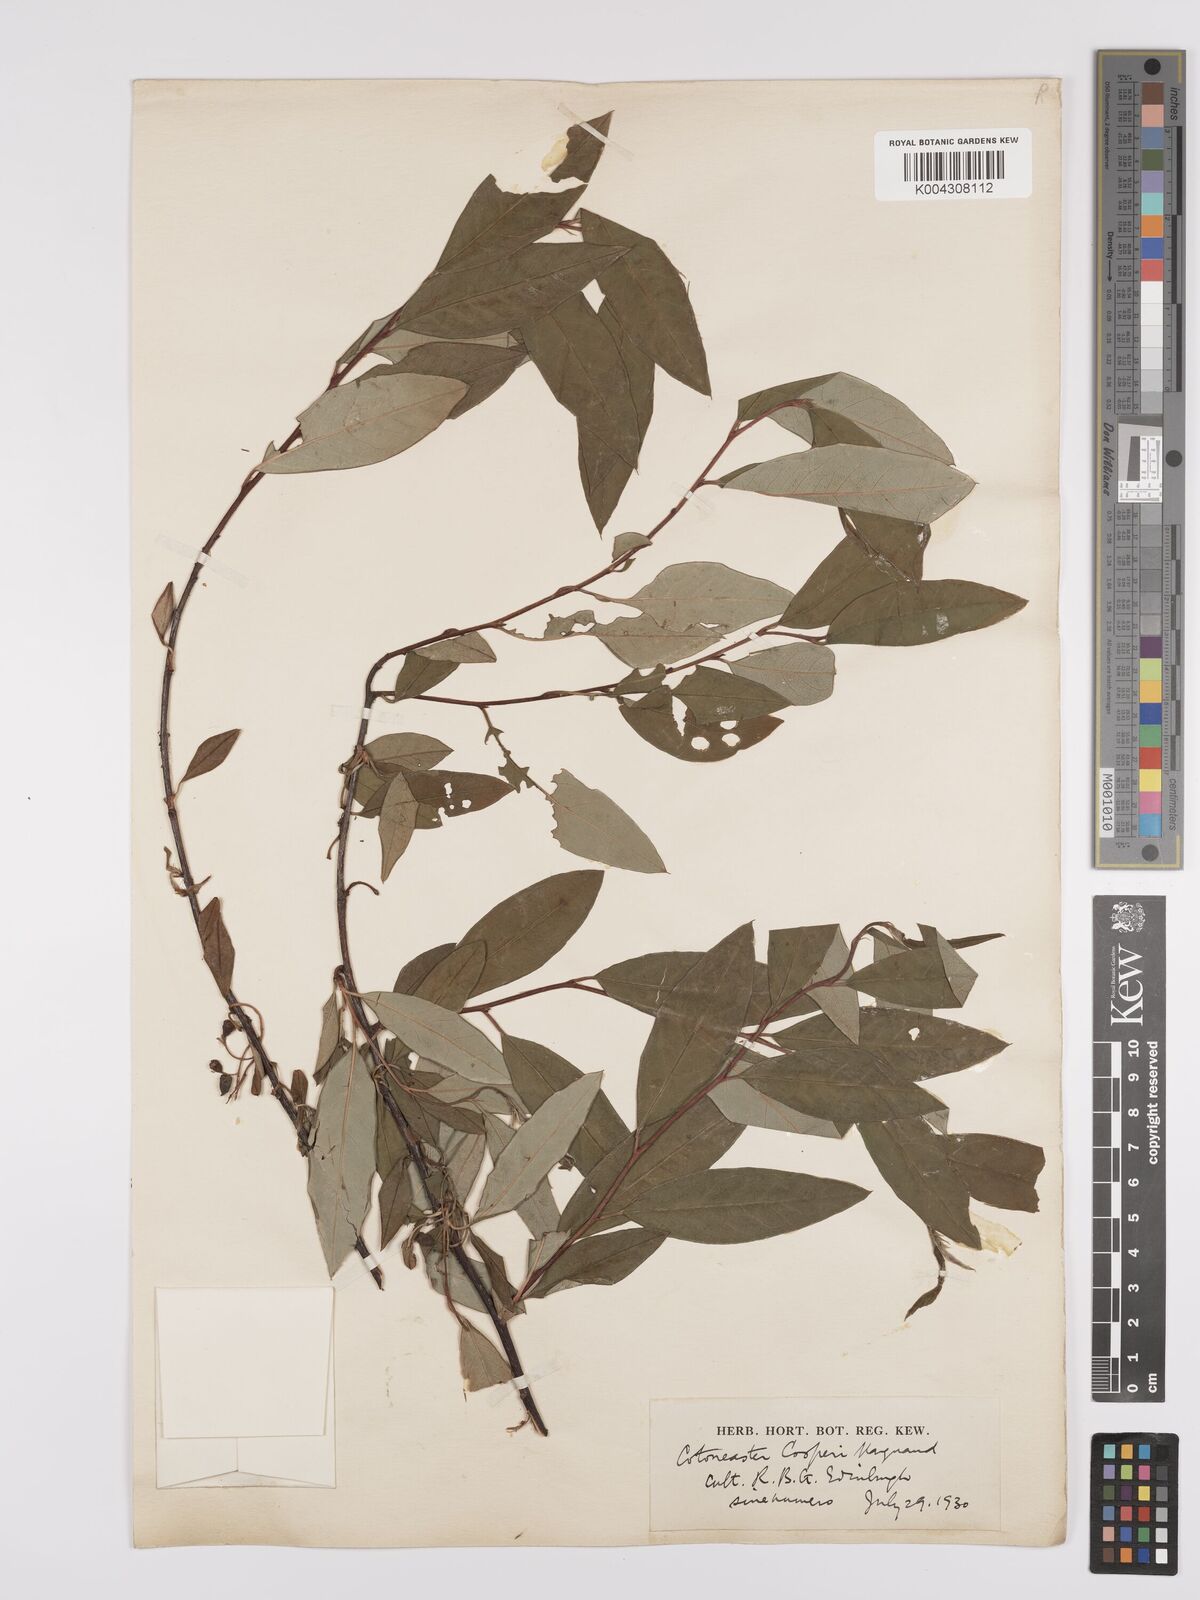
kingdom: Plantae
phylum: Tracheophyta
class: Magnoliopsida
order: Rosales
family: Rosaceae
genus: Cotoneaster
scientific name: Cotoneaster cooperi
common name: Cooper's cotoneaster
